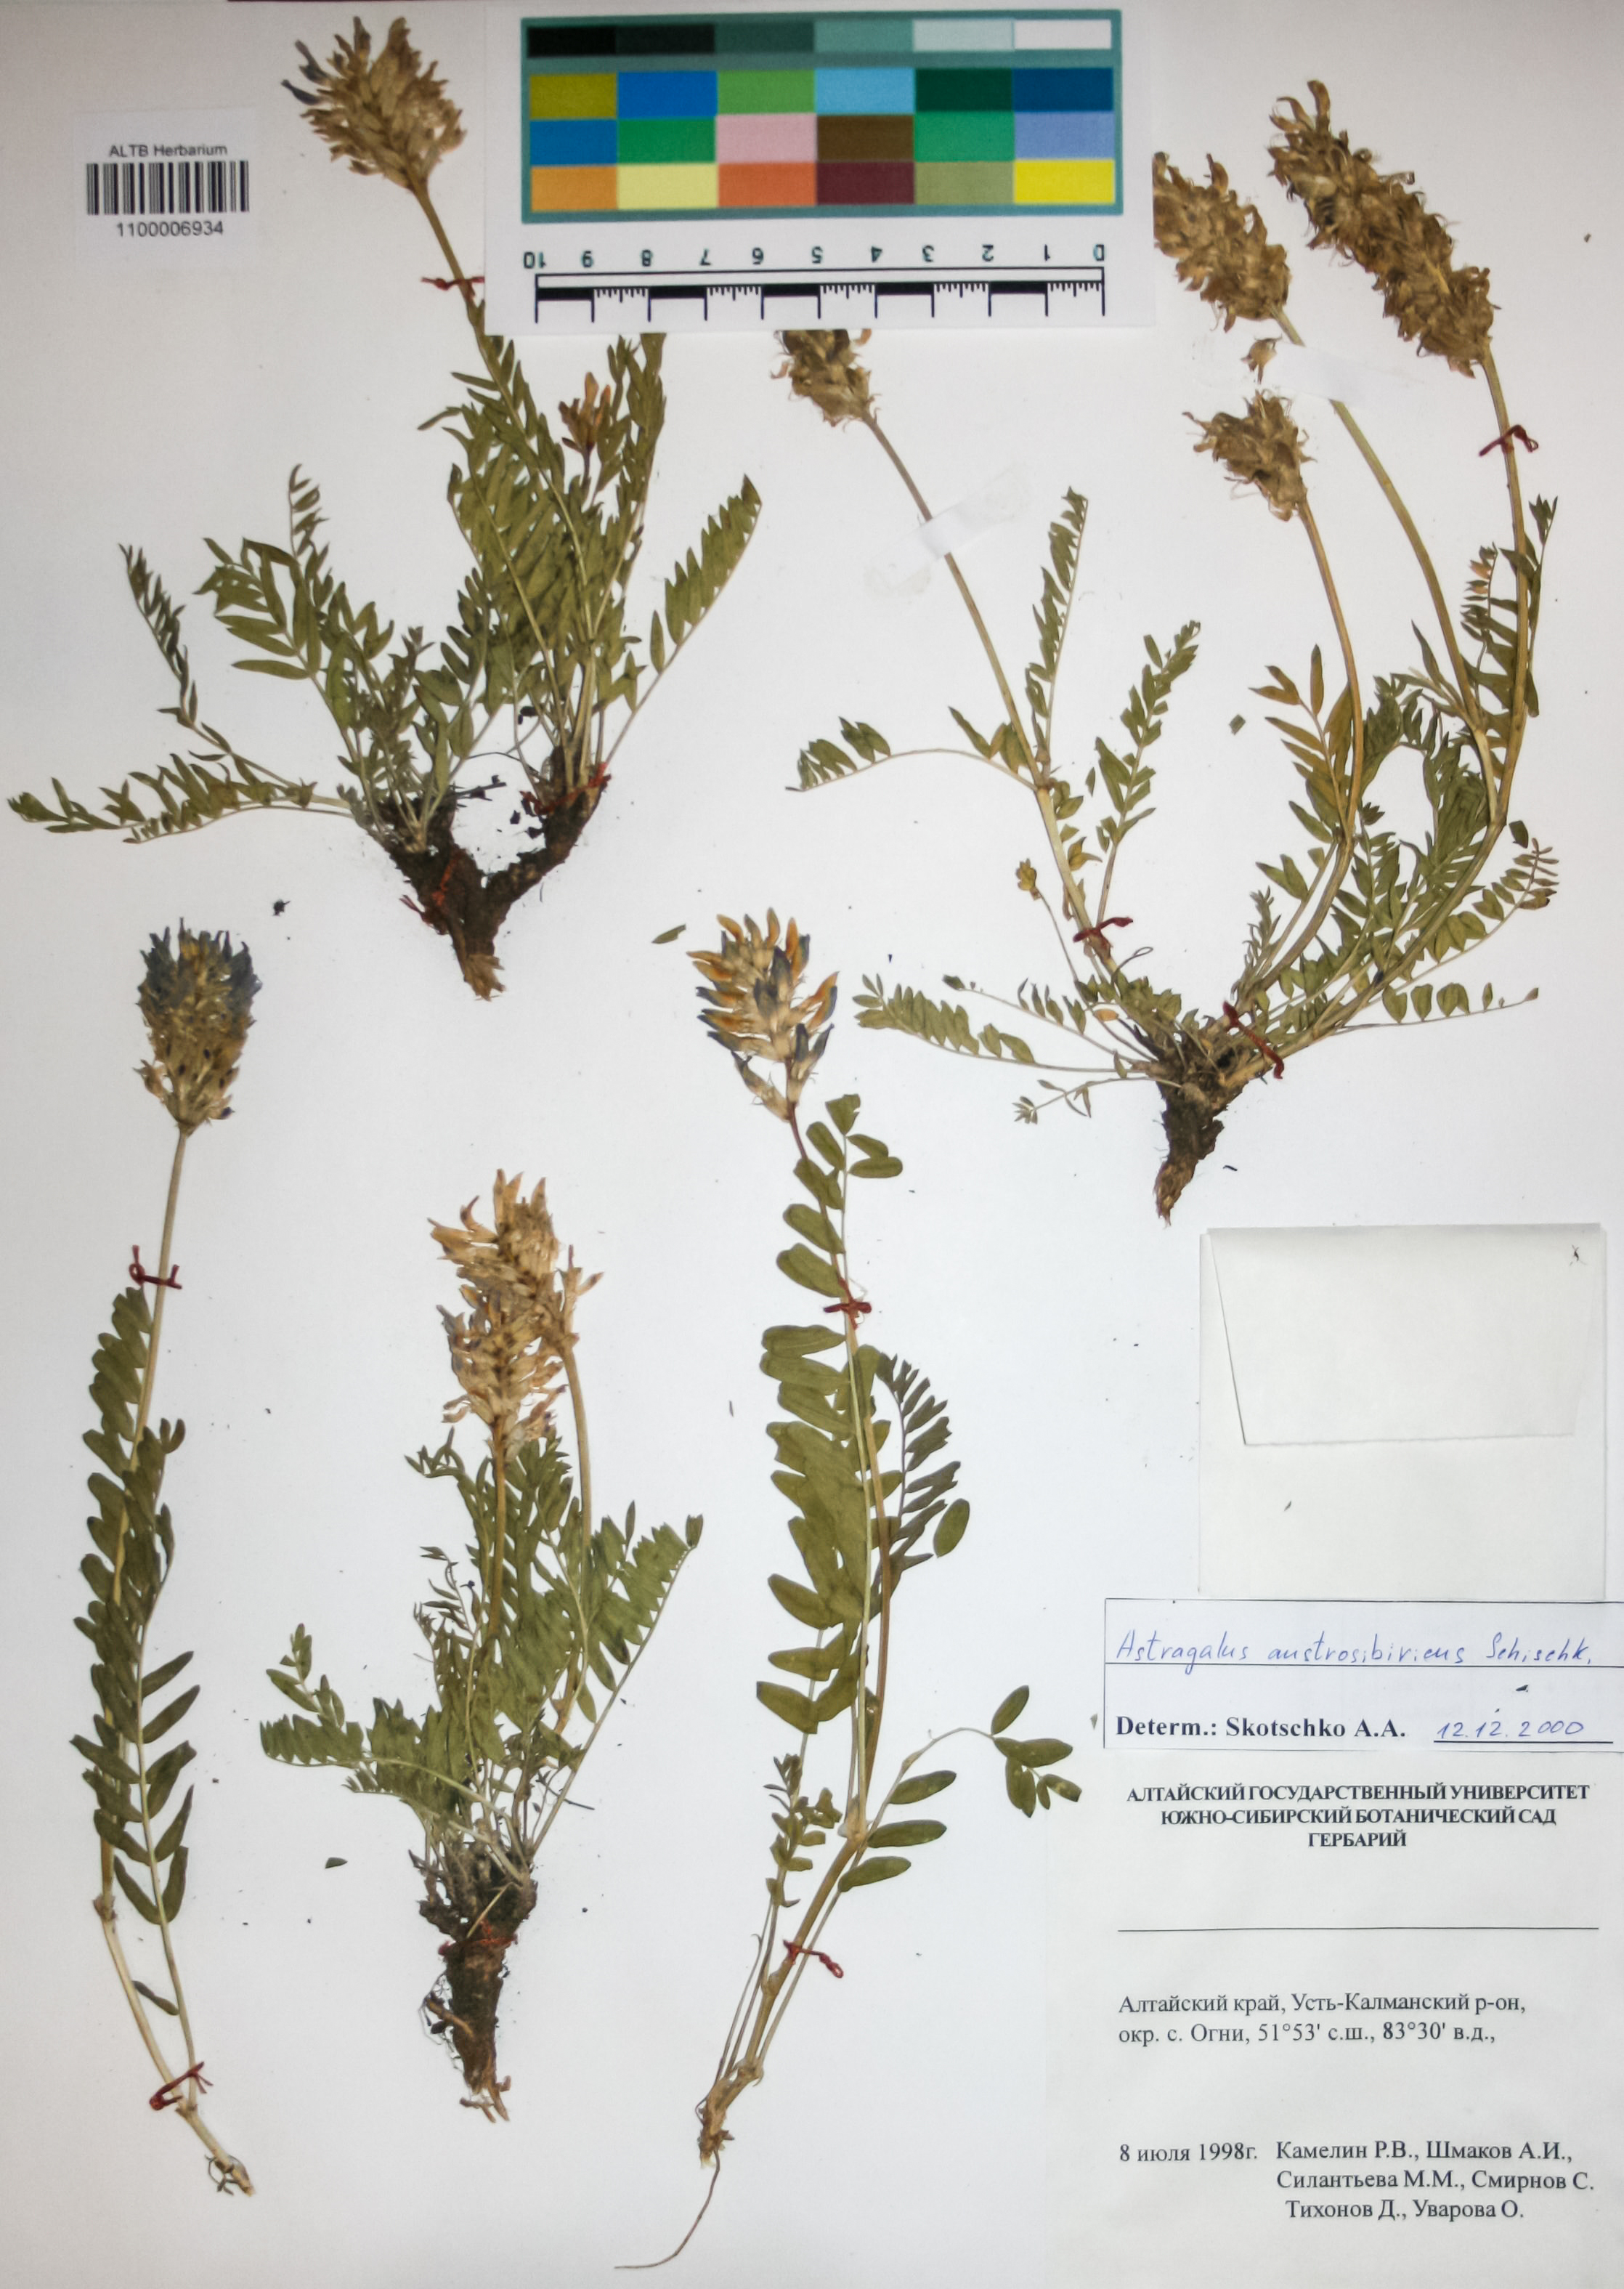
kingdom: Plantae
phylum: Tracheophyta
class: Magnoliopsida
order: Fabales
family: Fabaceae
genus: Astragalus
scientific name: Astragalus laxmannii
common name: Laxmann's milk-vetch
